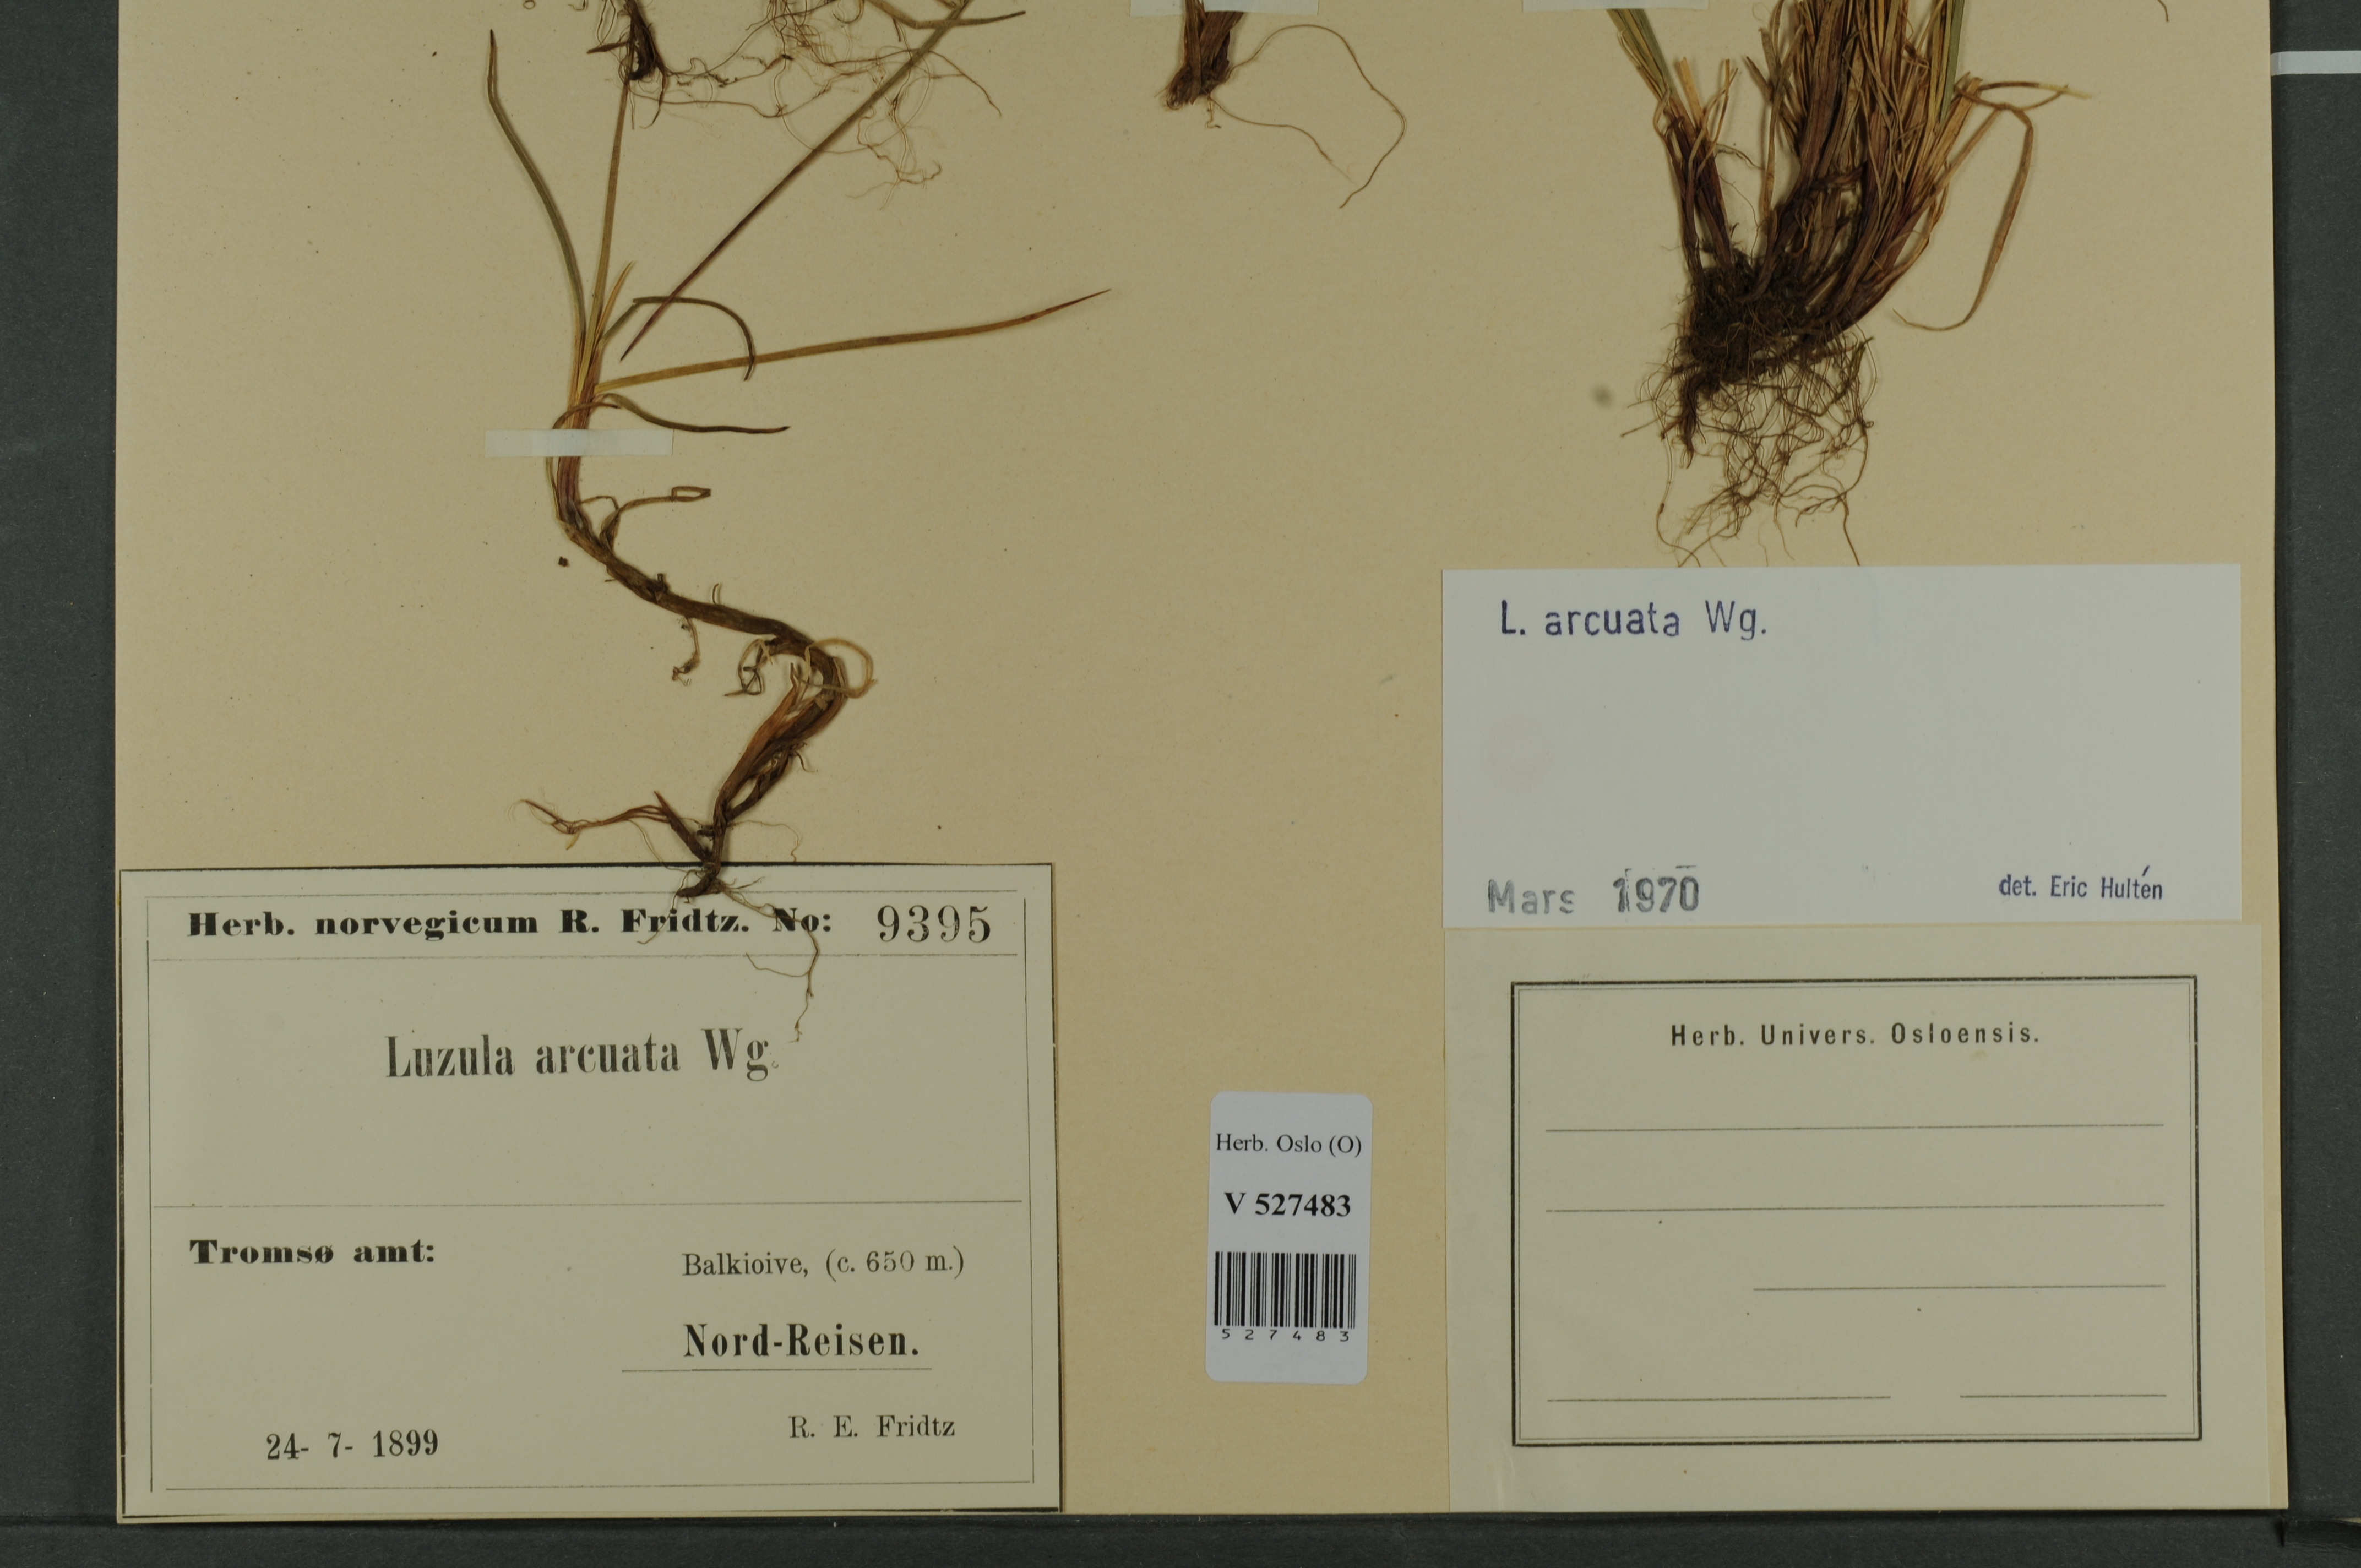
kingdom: Plantae
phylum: Tracheophyta
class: Liliopsida
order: Poales
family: Juncaceae
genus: Luzula
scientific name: Luzula arcuata
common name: Curved wood-rush
